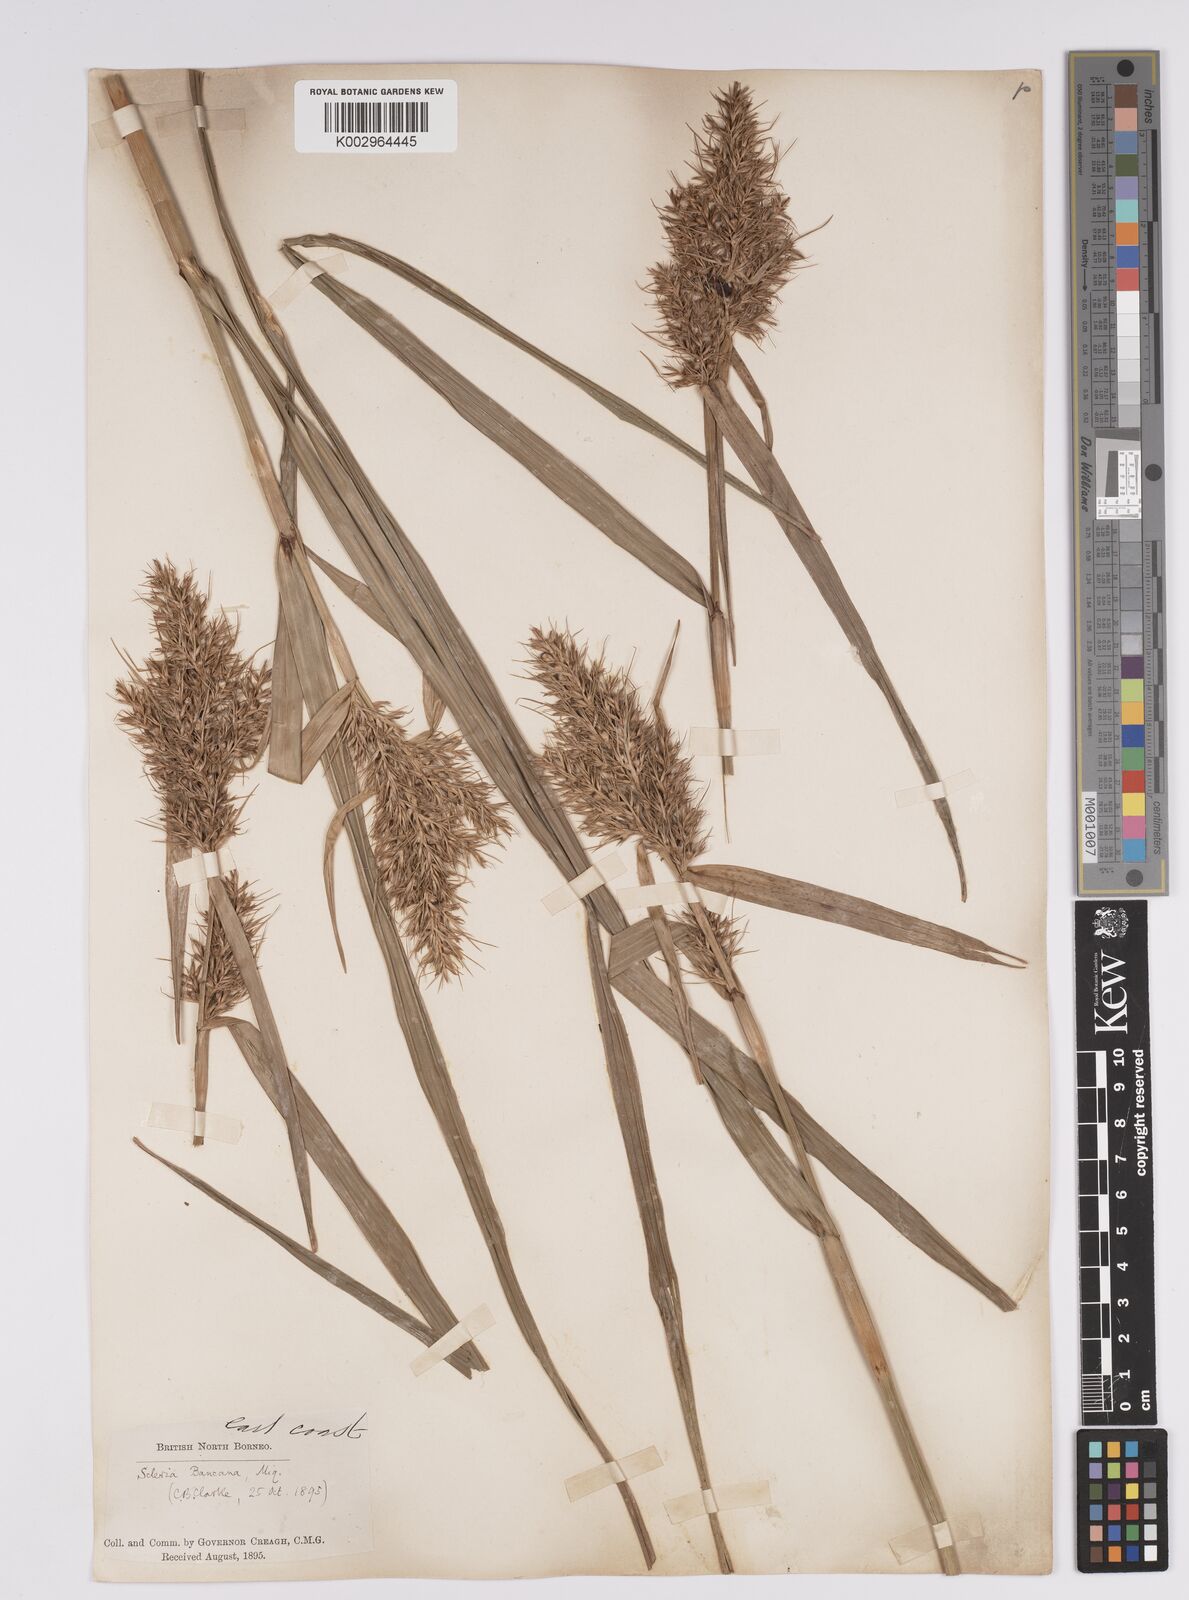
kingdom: Plantae
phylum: Tracheophyta
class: Liliopsida
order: Poales
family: Cyperaceae
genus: Scleria
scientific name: Scleria ciliaris
